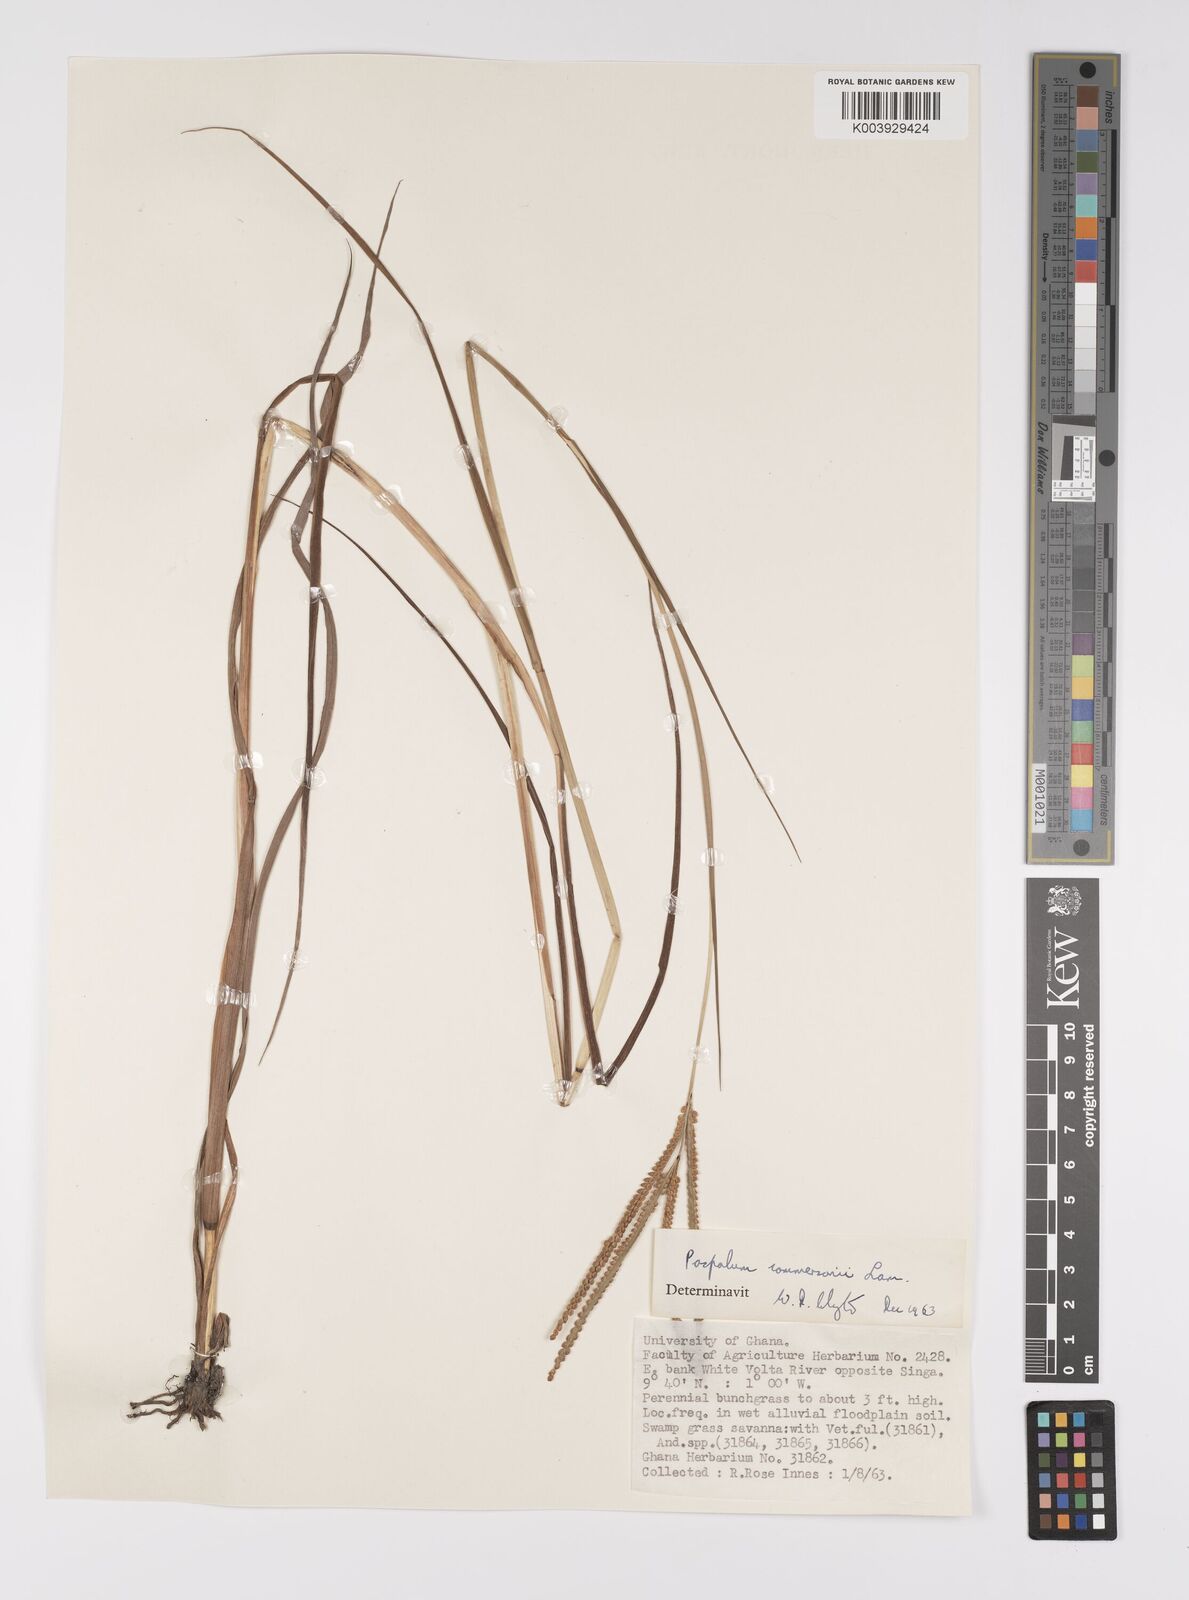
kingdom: Plantae
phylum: Tracheophyta
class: Liliopsida
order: Poales
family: Poaceae
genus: Paspalum
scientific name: Paspalum scrobiculatum
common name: Kodo millet
